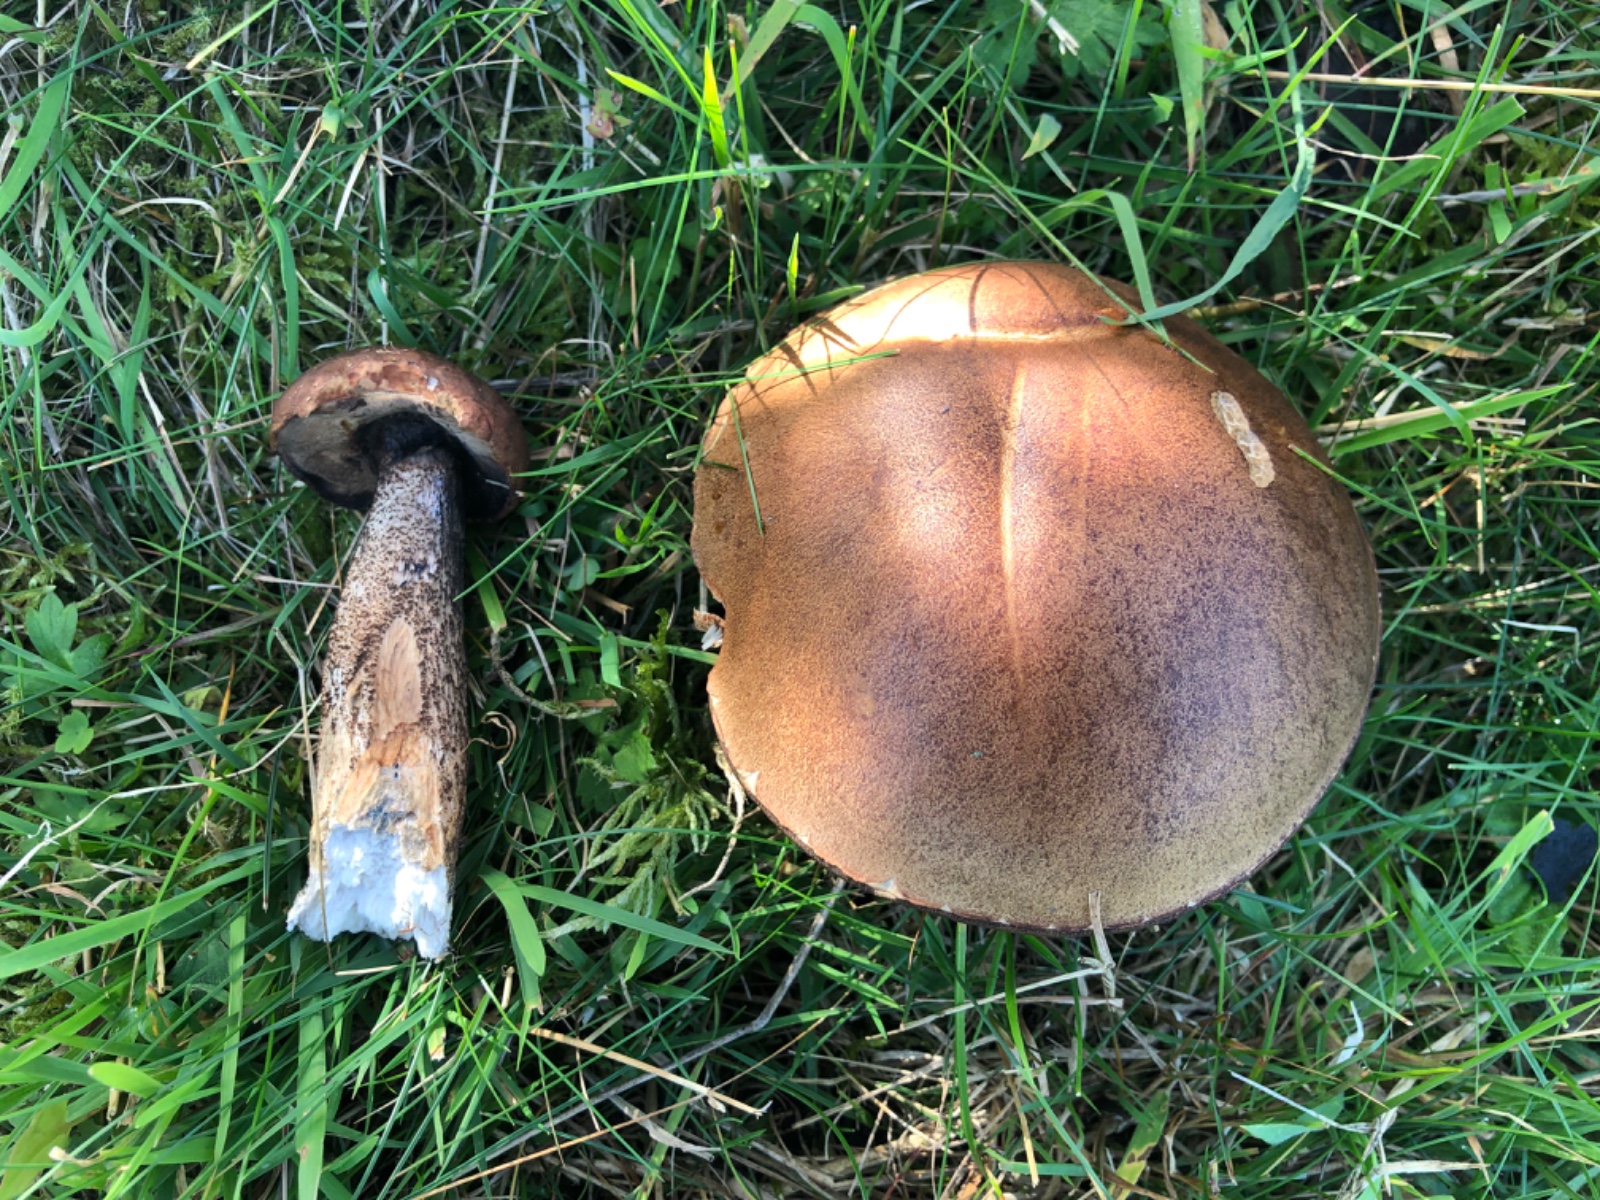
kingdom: Fungi
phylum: Basidiomycota
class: Agaricomycetes
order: Boletales
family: Boletaceae
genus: Leccinum
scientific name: Leccinum duriusculum
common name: poppel-skælrørhat
